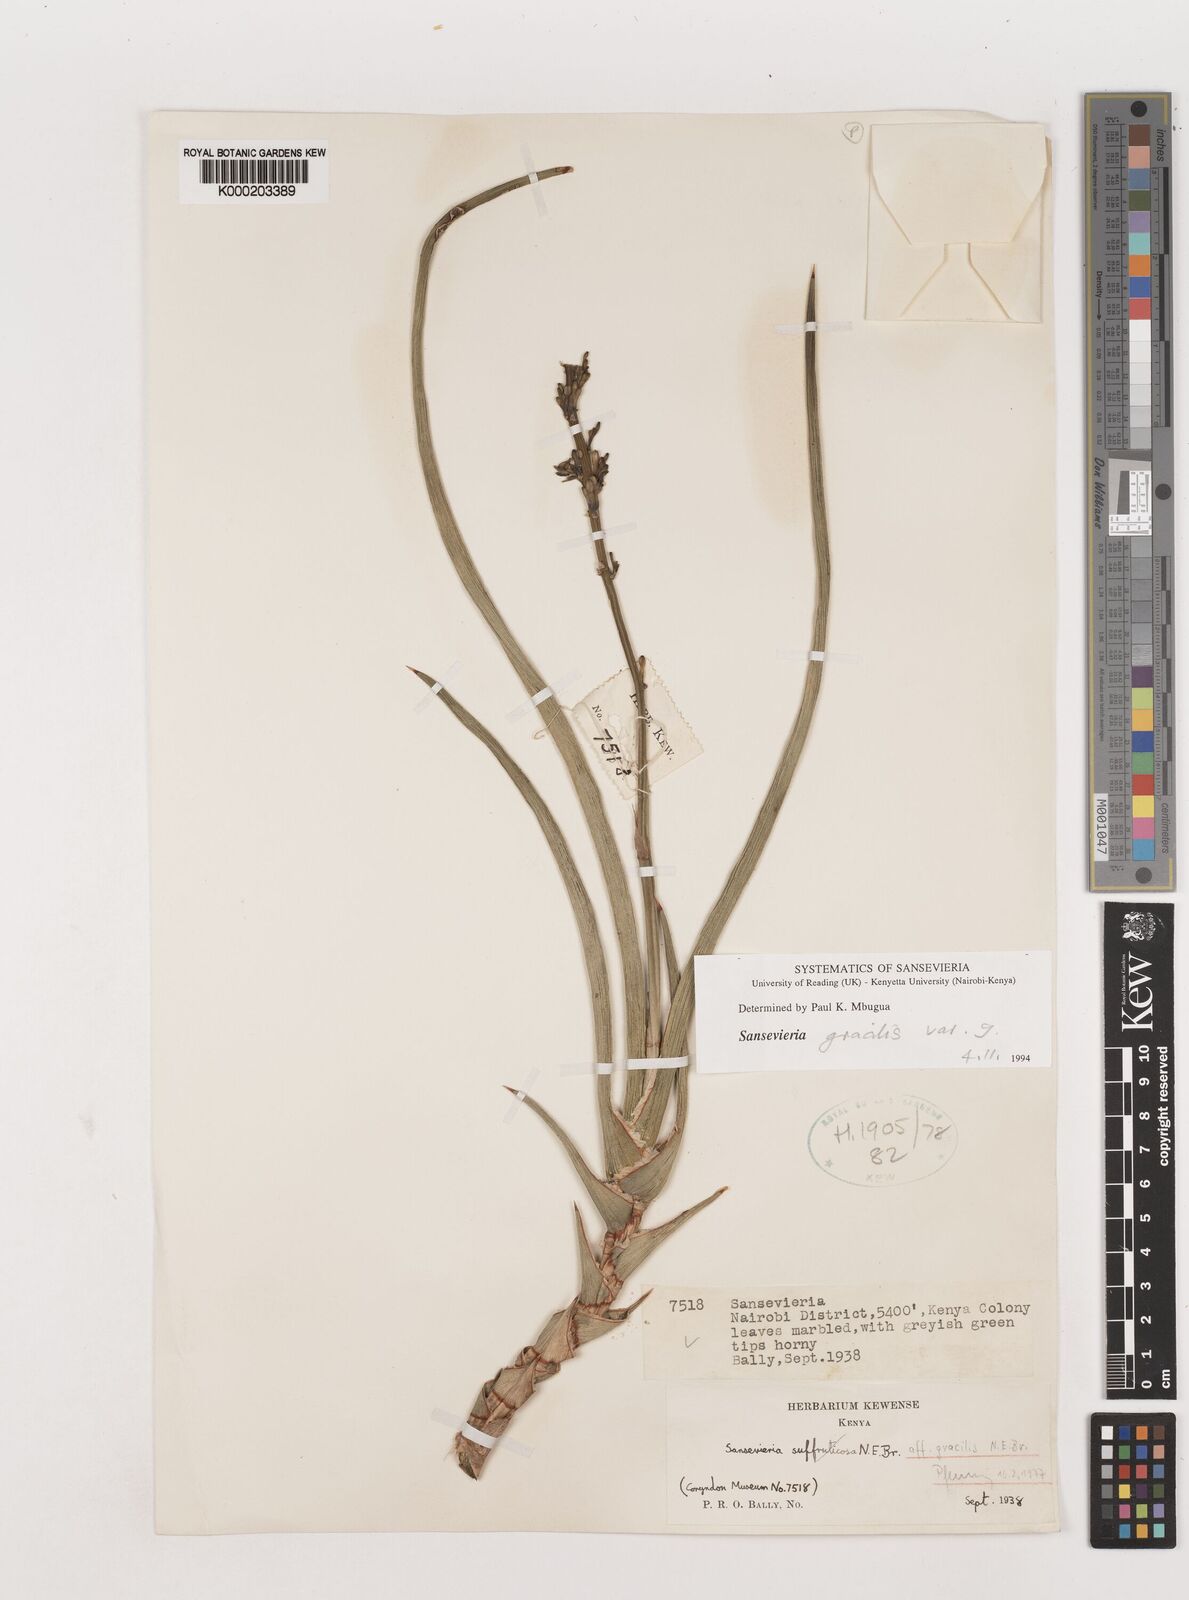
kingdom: Plantae
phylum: Tracheophyta
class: Liliopsida
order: Asparagales
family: Asparagaceae
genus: Dracaena
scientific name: Dracaena serpenta
